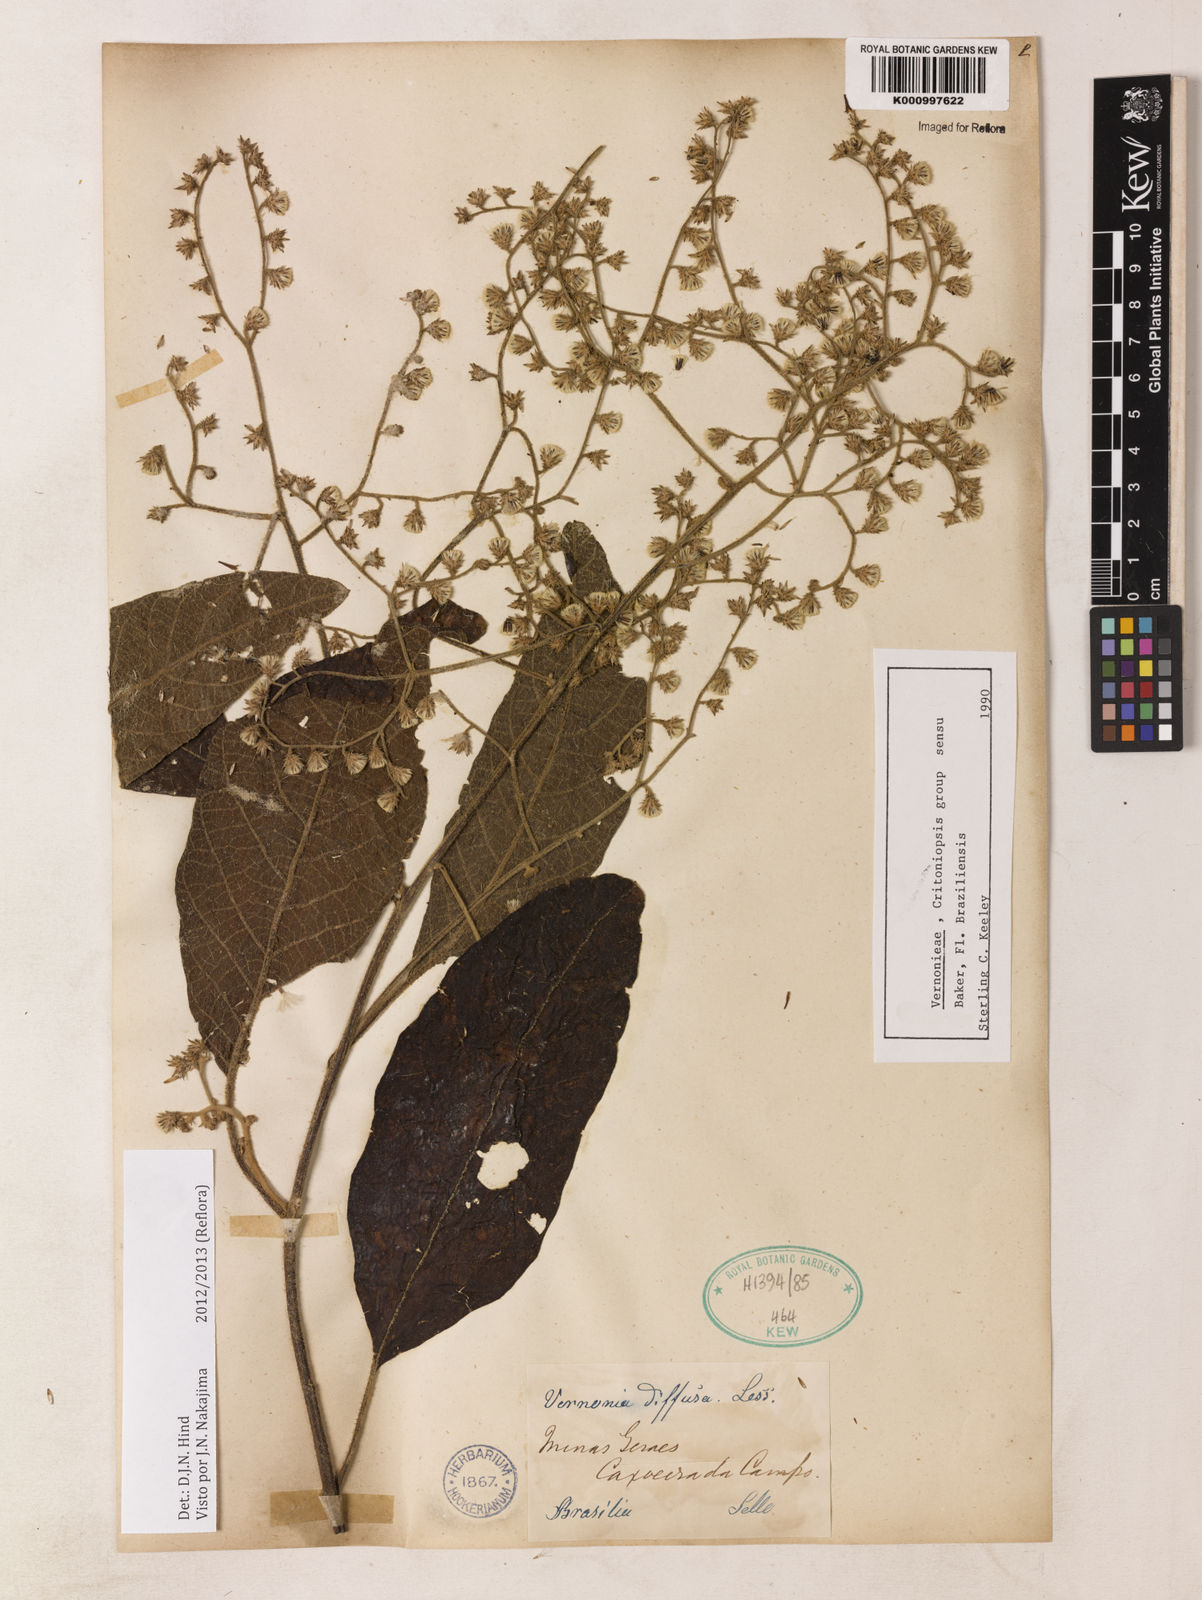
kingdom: Plantae
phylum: Tracheophyta
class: Magnoliopsida
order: Asterales
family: Asteraceae
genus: Vernonanthura
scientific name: Vernonanthura divaricata
